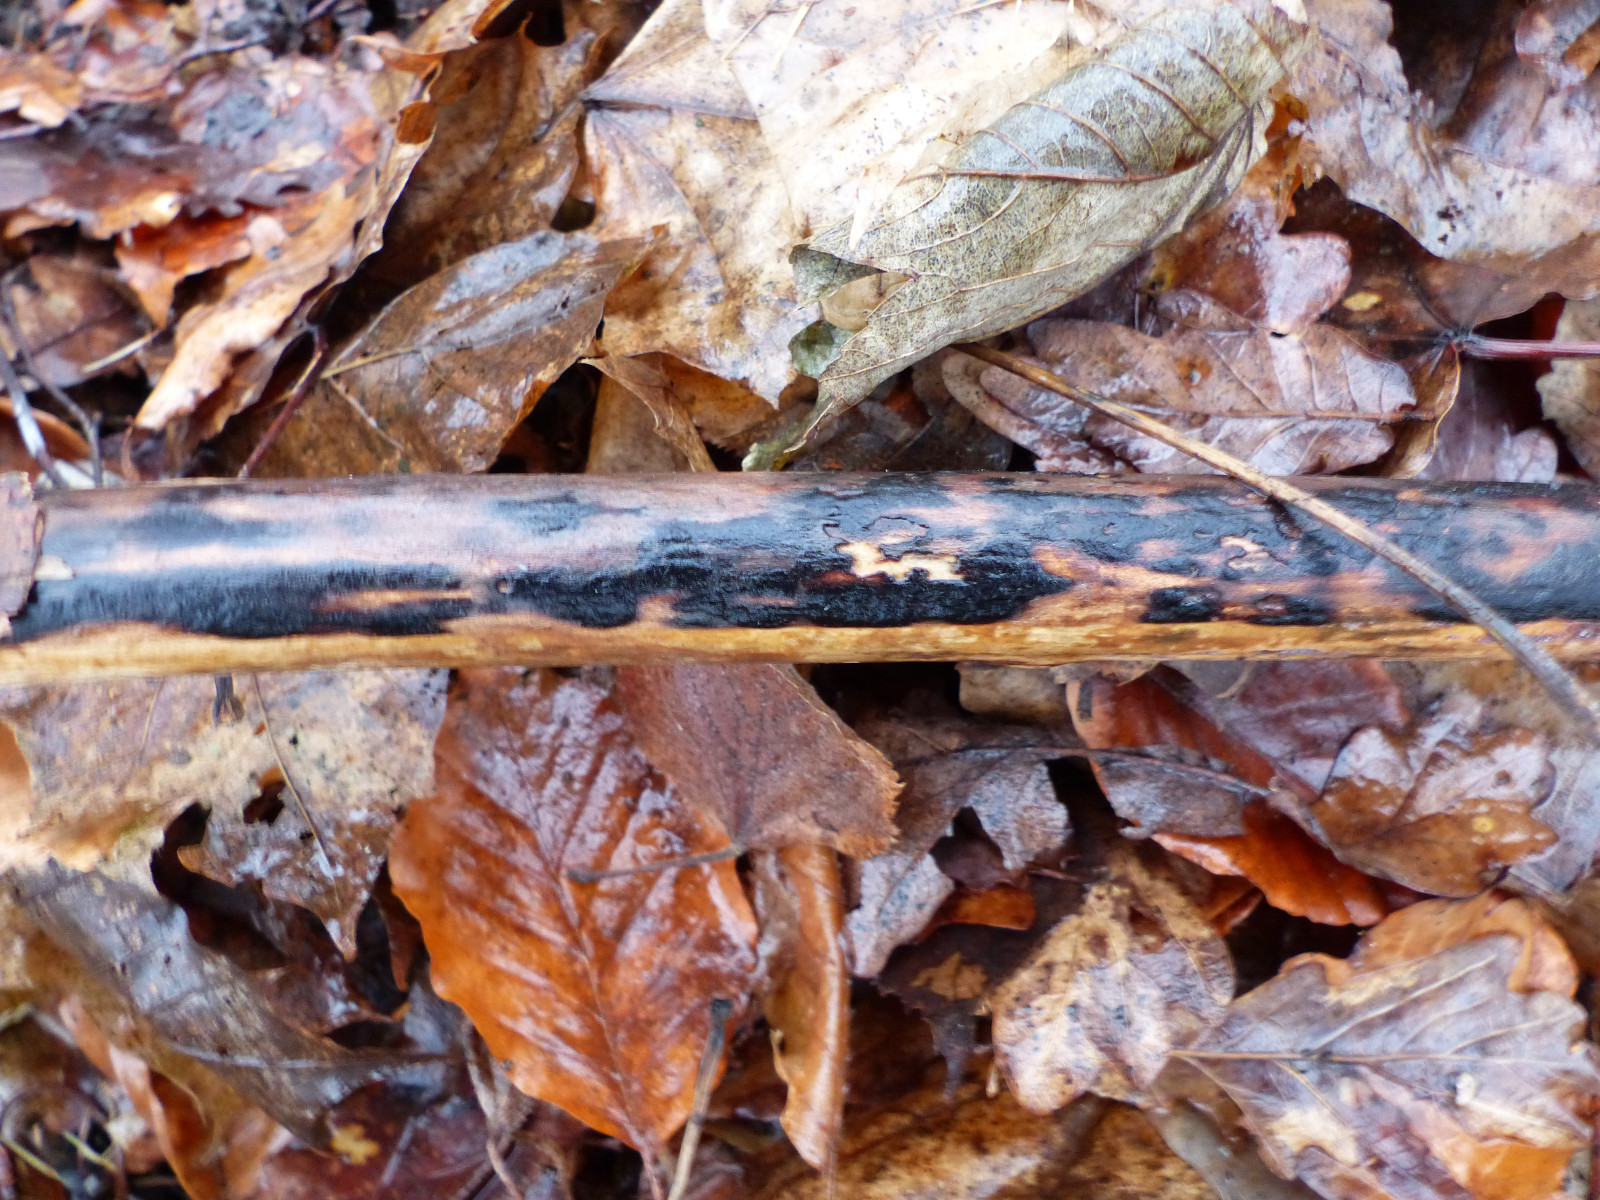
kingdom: Fungi
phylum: Ascomycota
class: Sordariomycetes
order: Xylariales
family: Diatrypaceae
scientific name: Diatrypaceae
